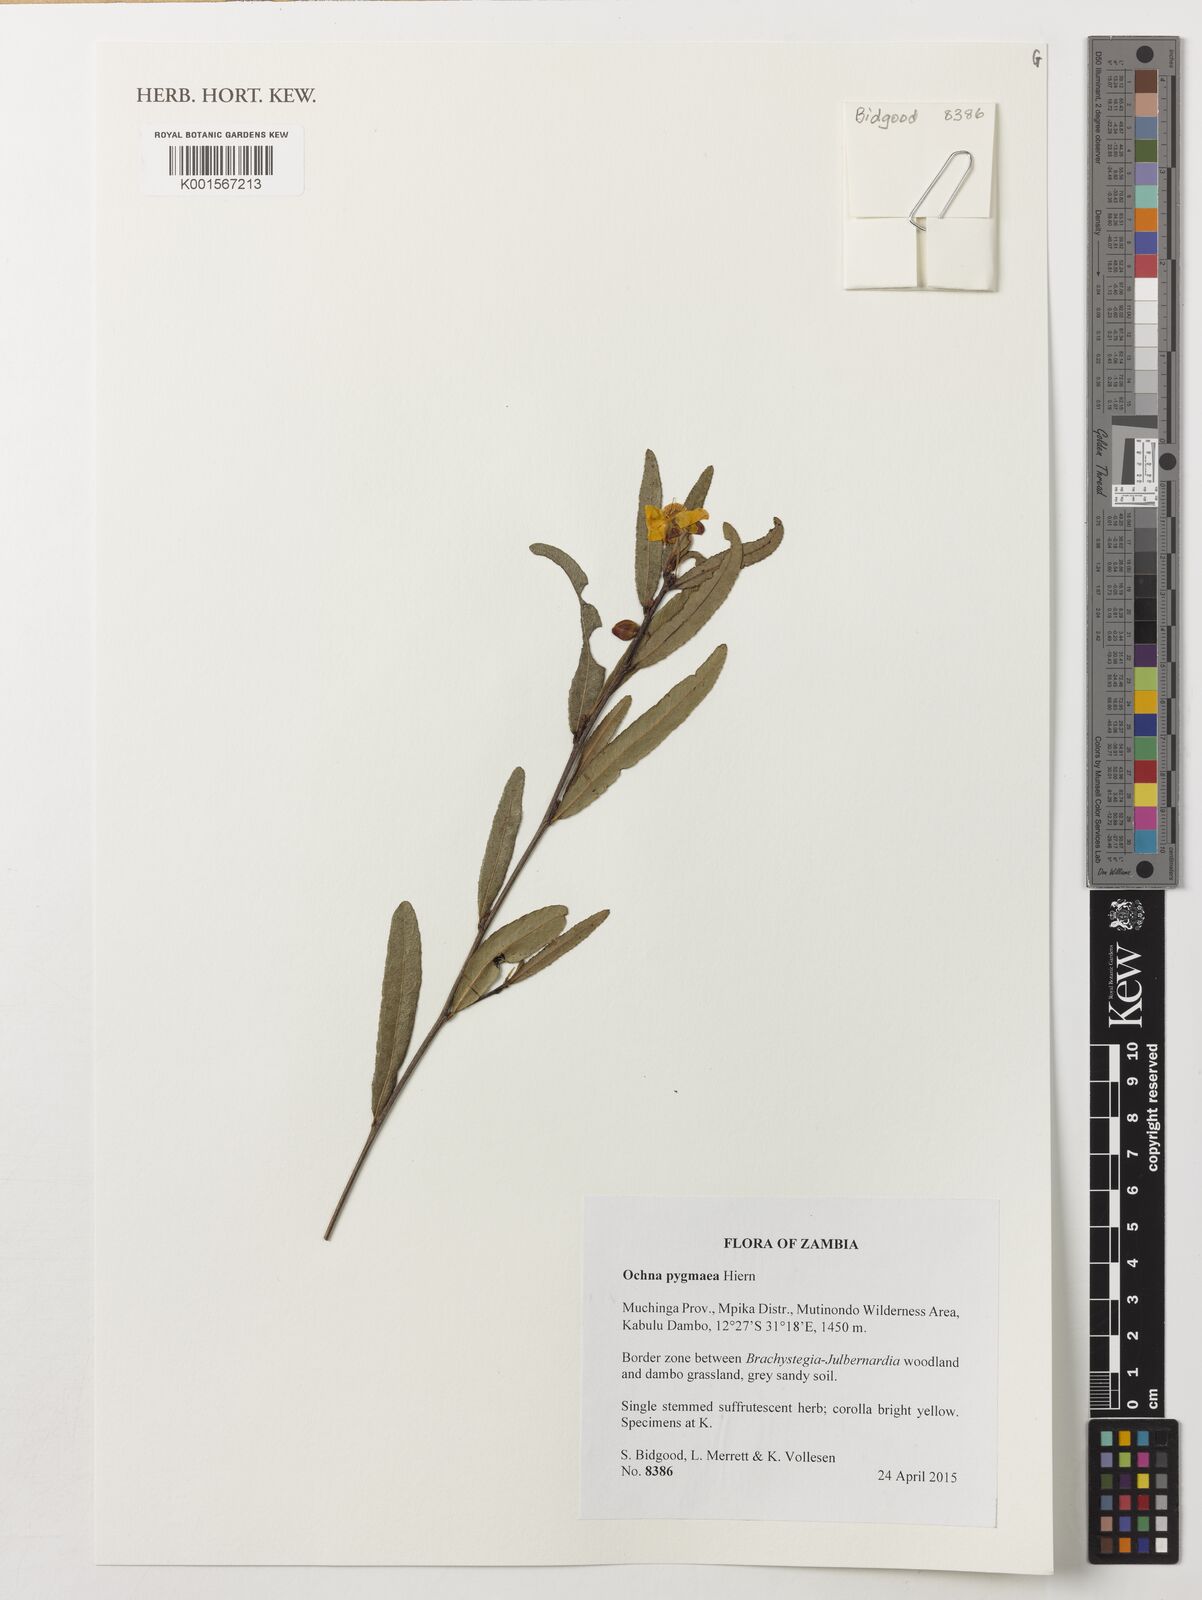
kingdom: Plantae
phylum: Tracheophyta
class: Magnoliopsida
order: Malpighiales
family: Ochnaceae
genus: Ochna
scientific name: Ochna pygmaea
